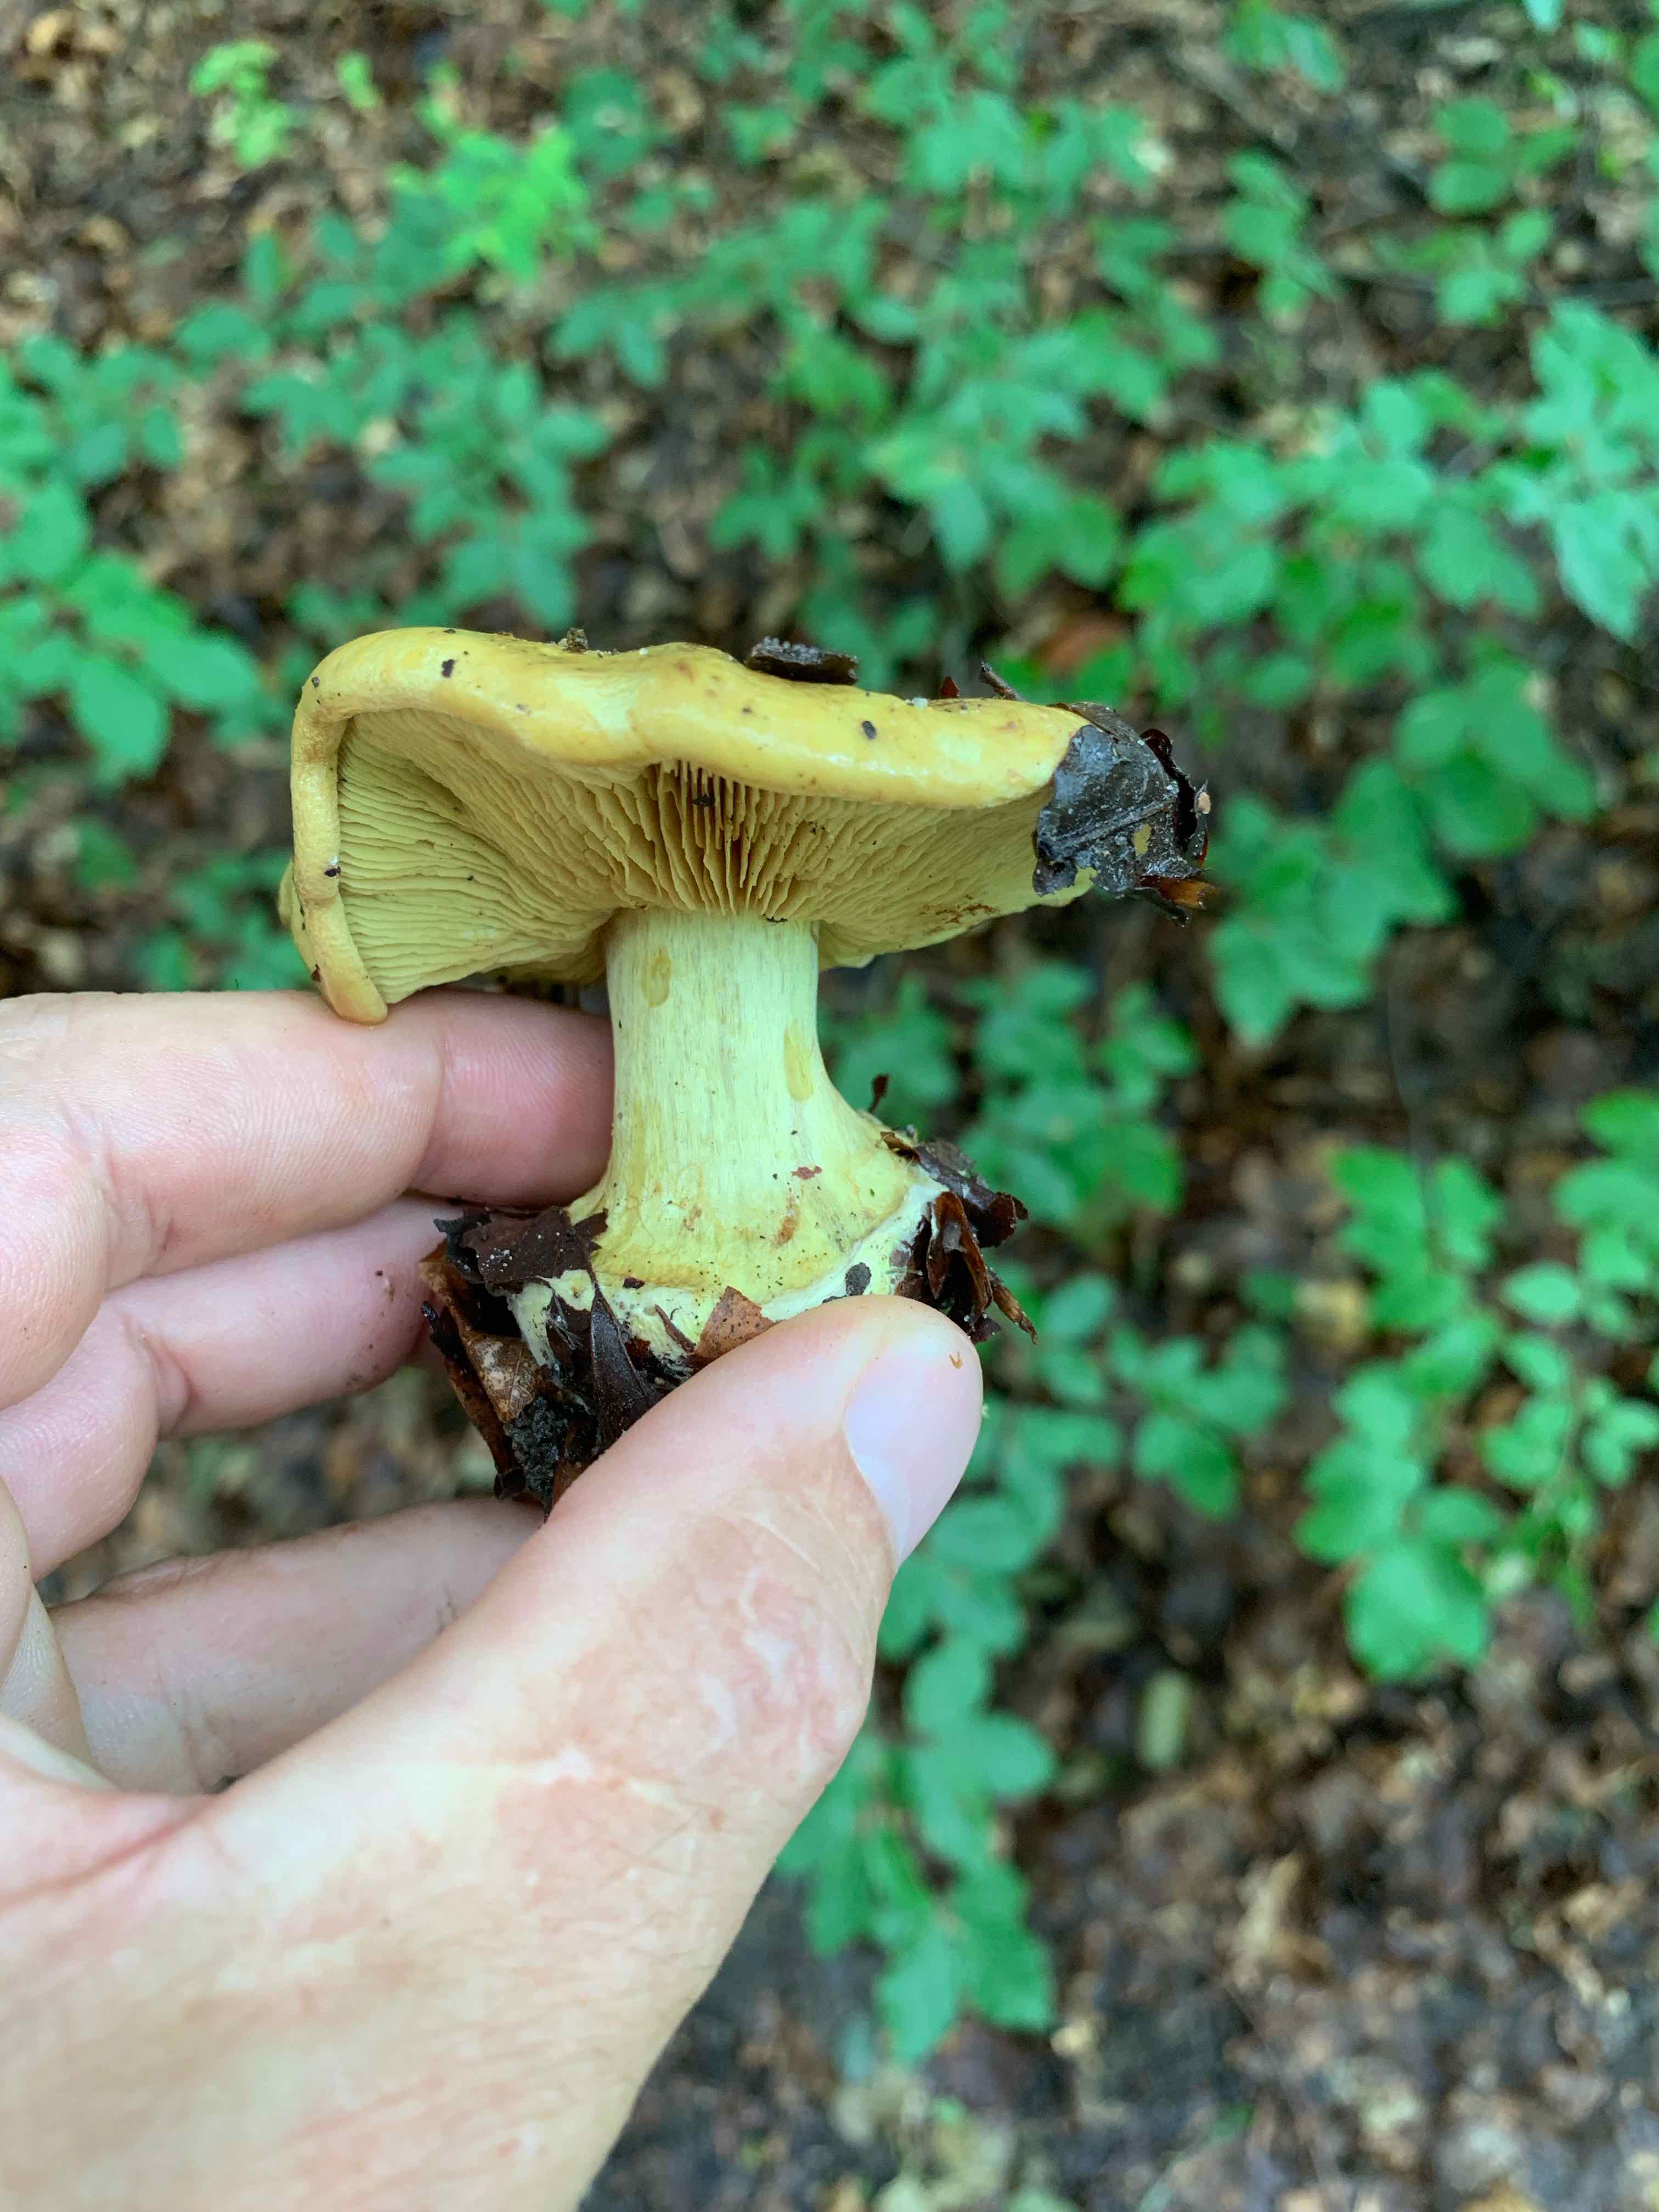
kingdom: Fungi
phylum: Basidiomycota
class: Agaricomycetes
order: Agaricales
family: Cortinariaceae
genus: Calonarius
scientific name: Calonarius citrinus
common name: citrongul slørhat
